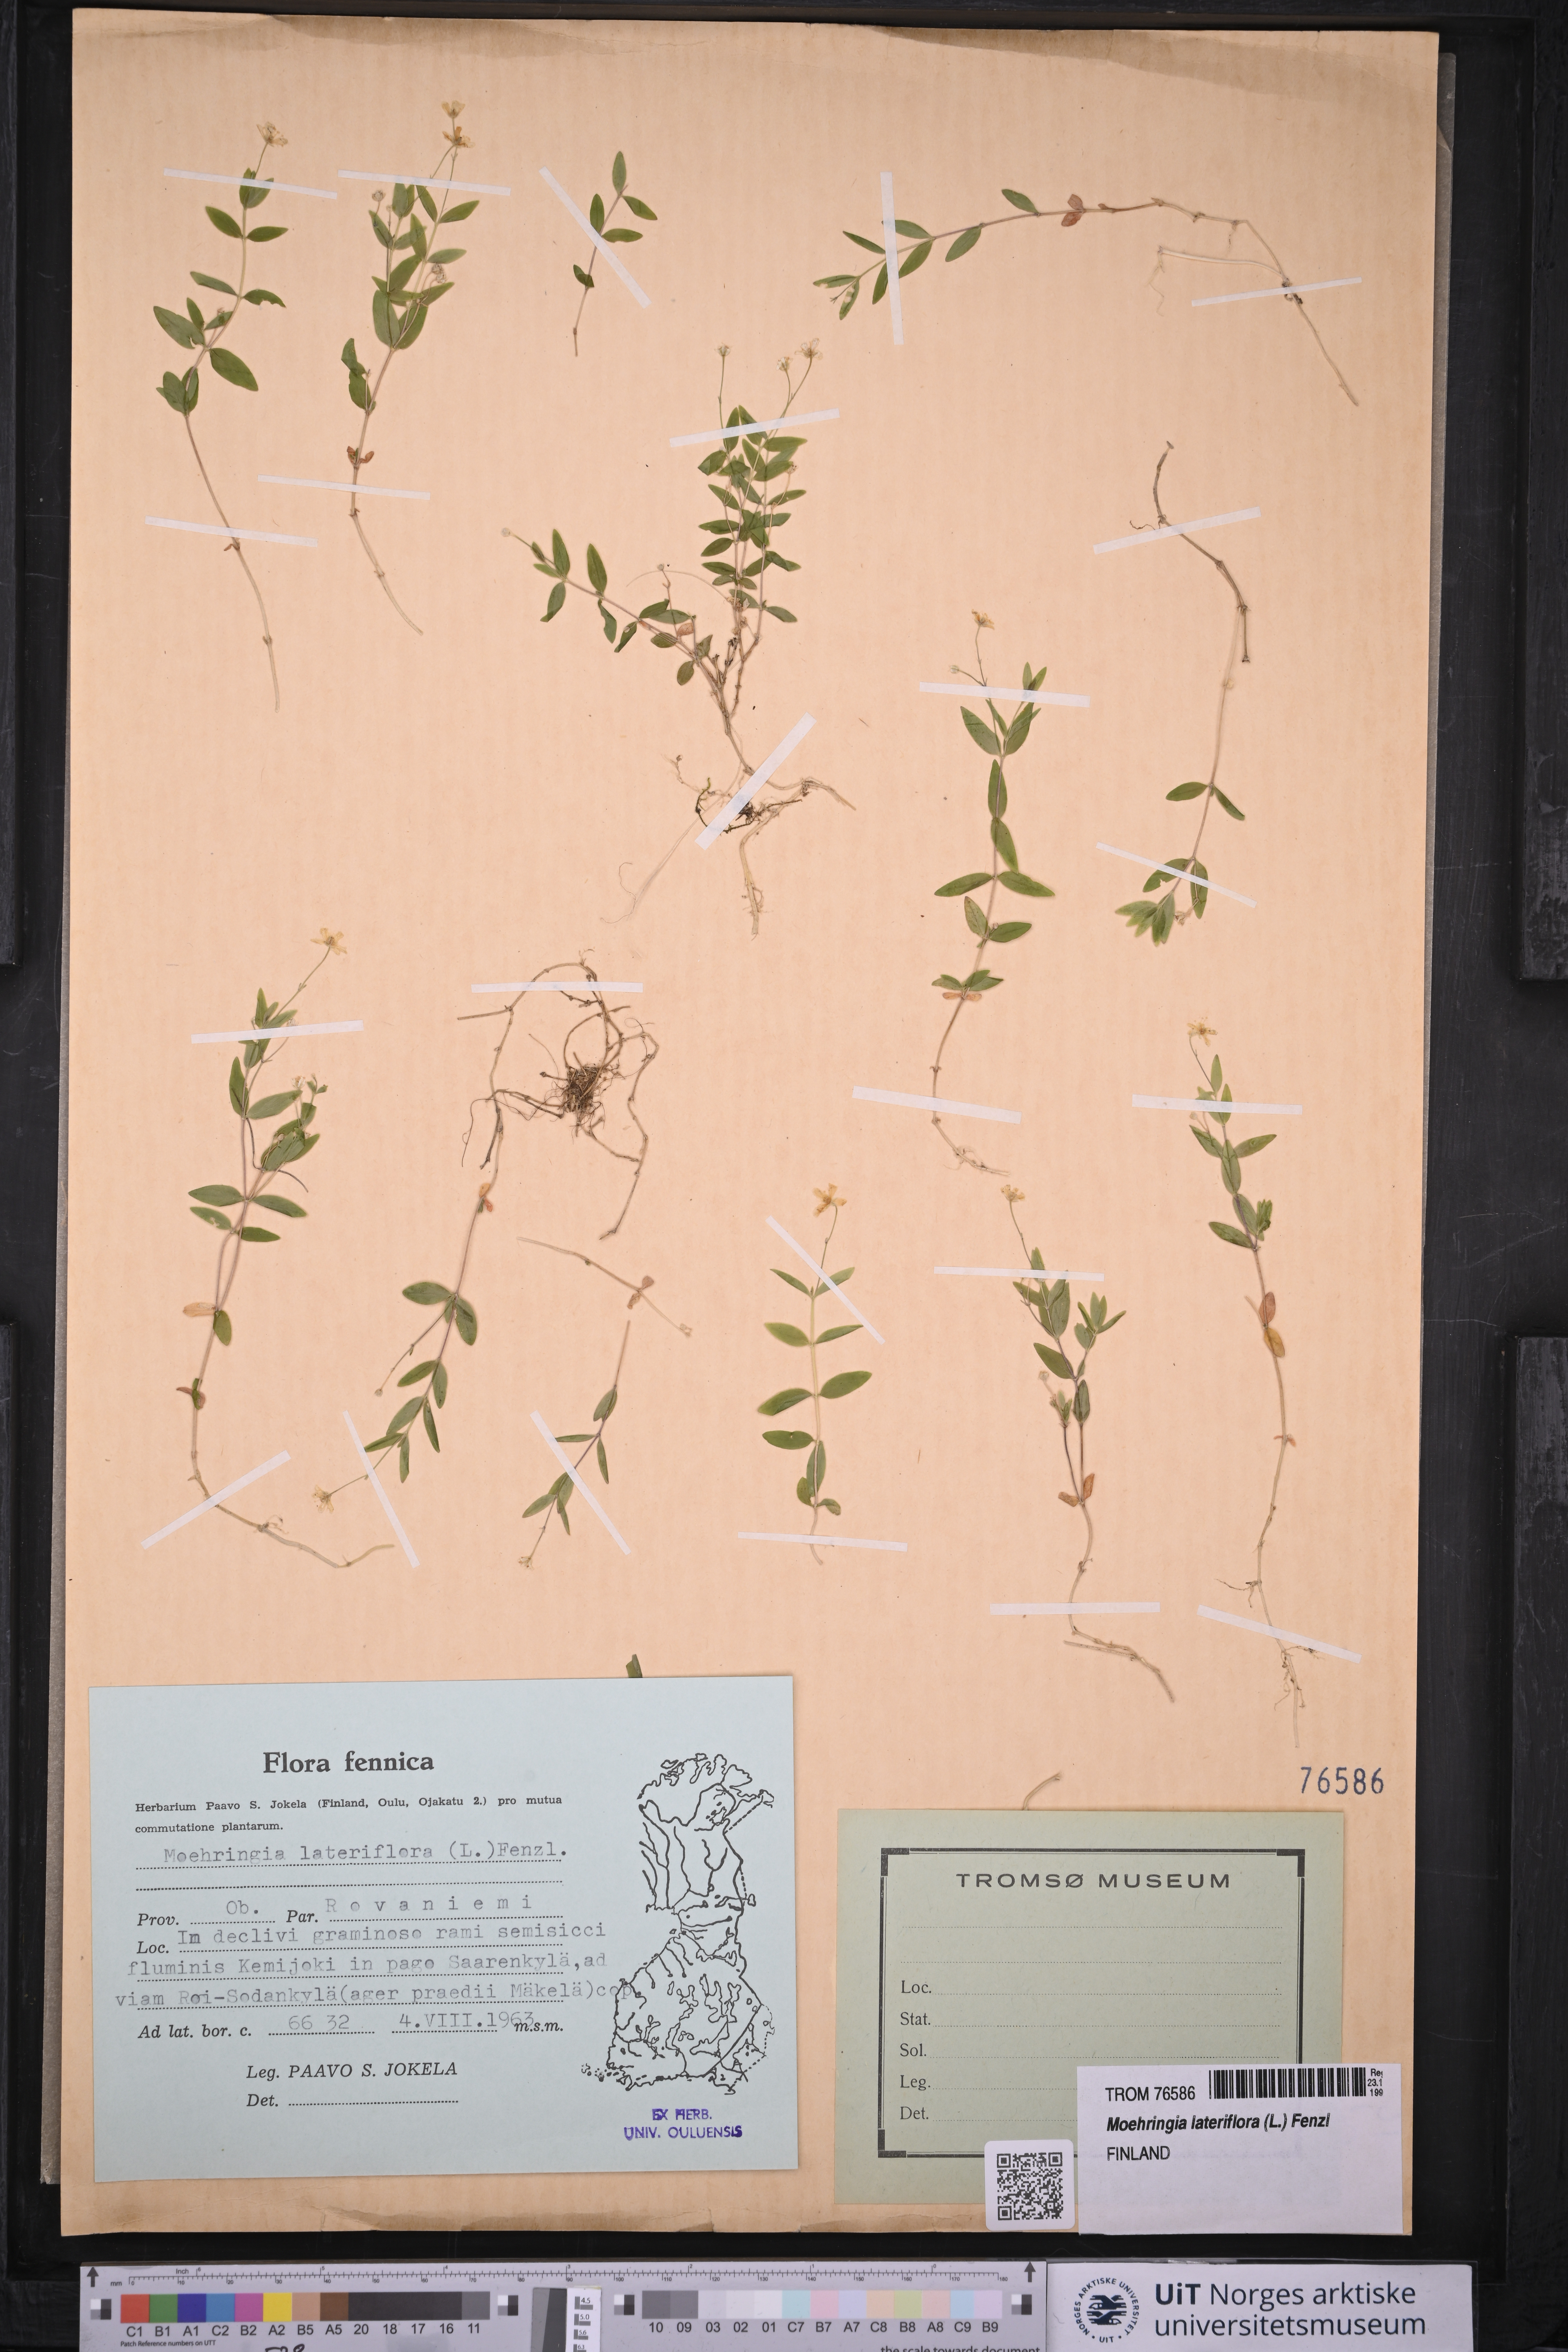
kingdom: Plantae
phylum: Tracheophyta
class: Magnoliopsida
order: Caryophyllales
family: Caryophyllaceae
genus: Moehringia
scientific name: Moehringia lateriflora
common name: Blunt-leaved sandwort
